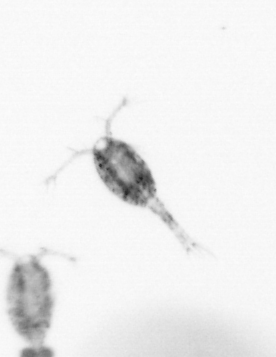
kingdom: Animalia
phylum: Arthropoda
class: Copepoda
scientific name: Copepoda
